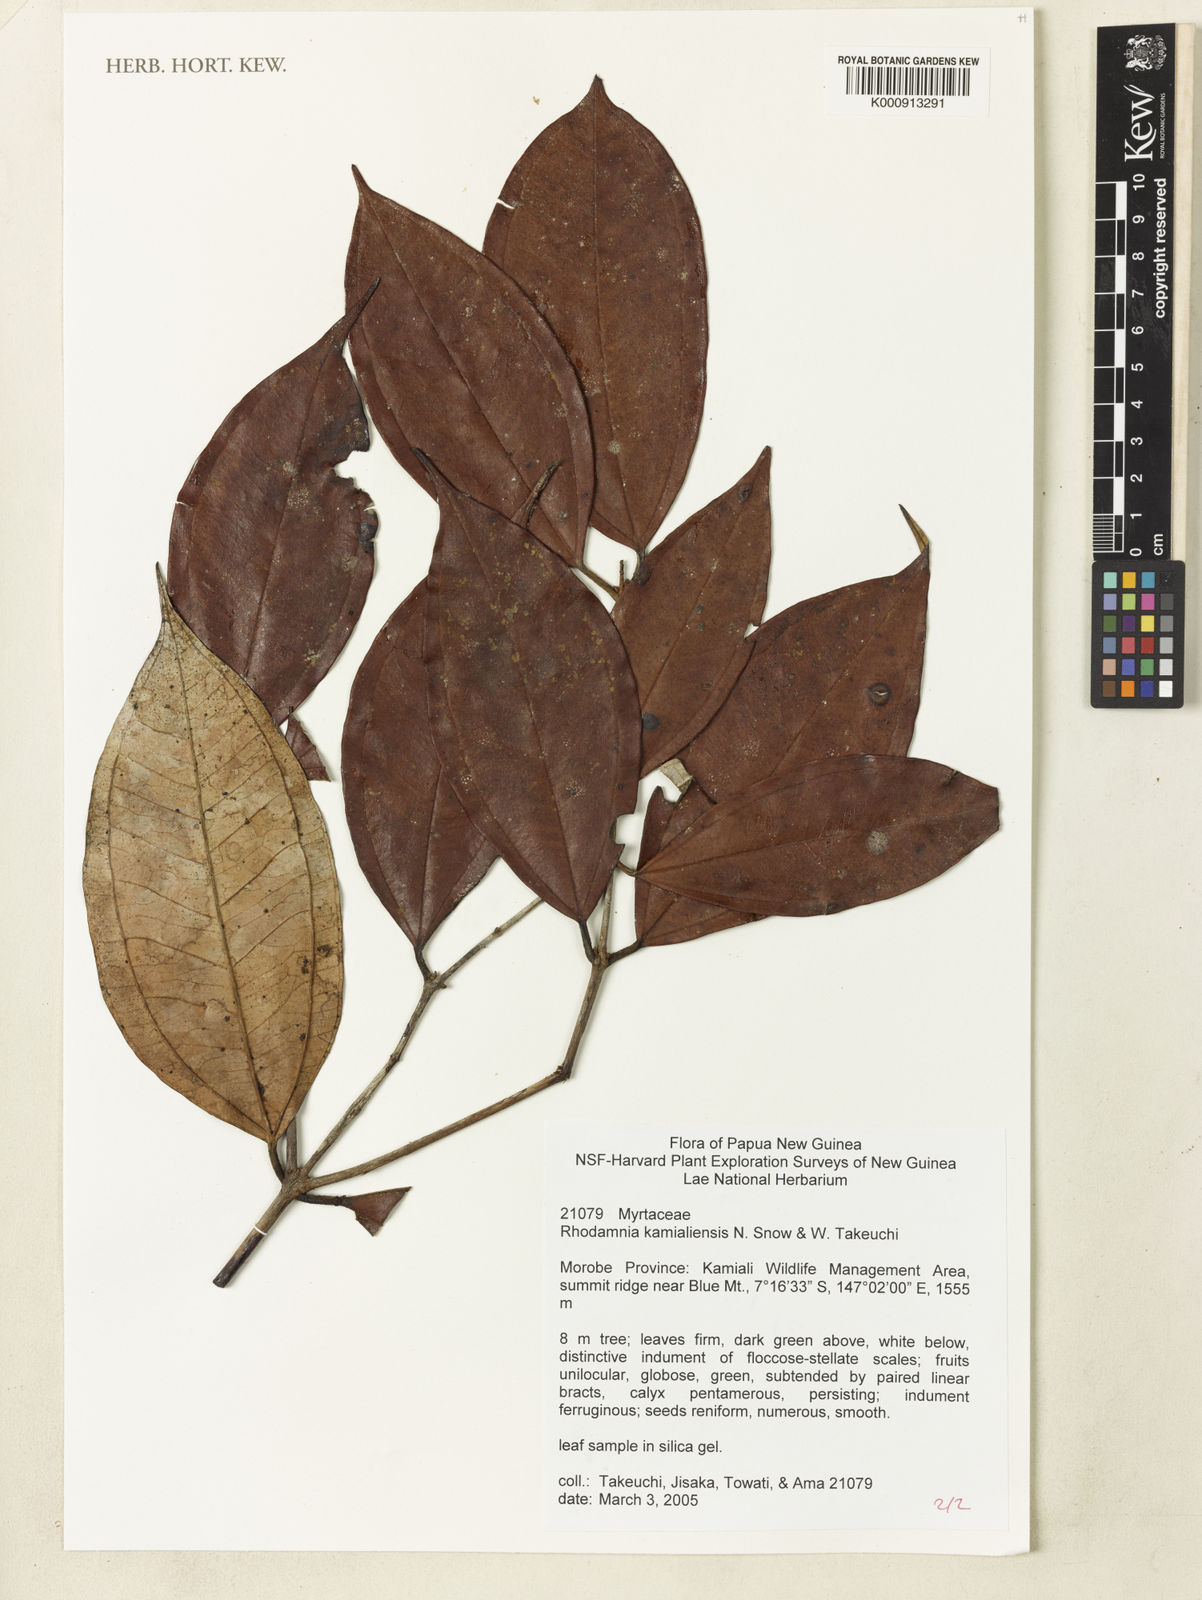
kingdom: Plantae
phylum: Tracheophyta
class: Magnoliopsida
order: Myrtales
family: Myrtaceae
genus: Rhodamnia
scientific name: Rhodamnia kamialiensis
